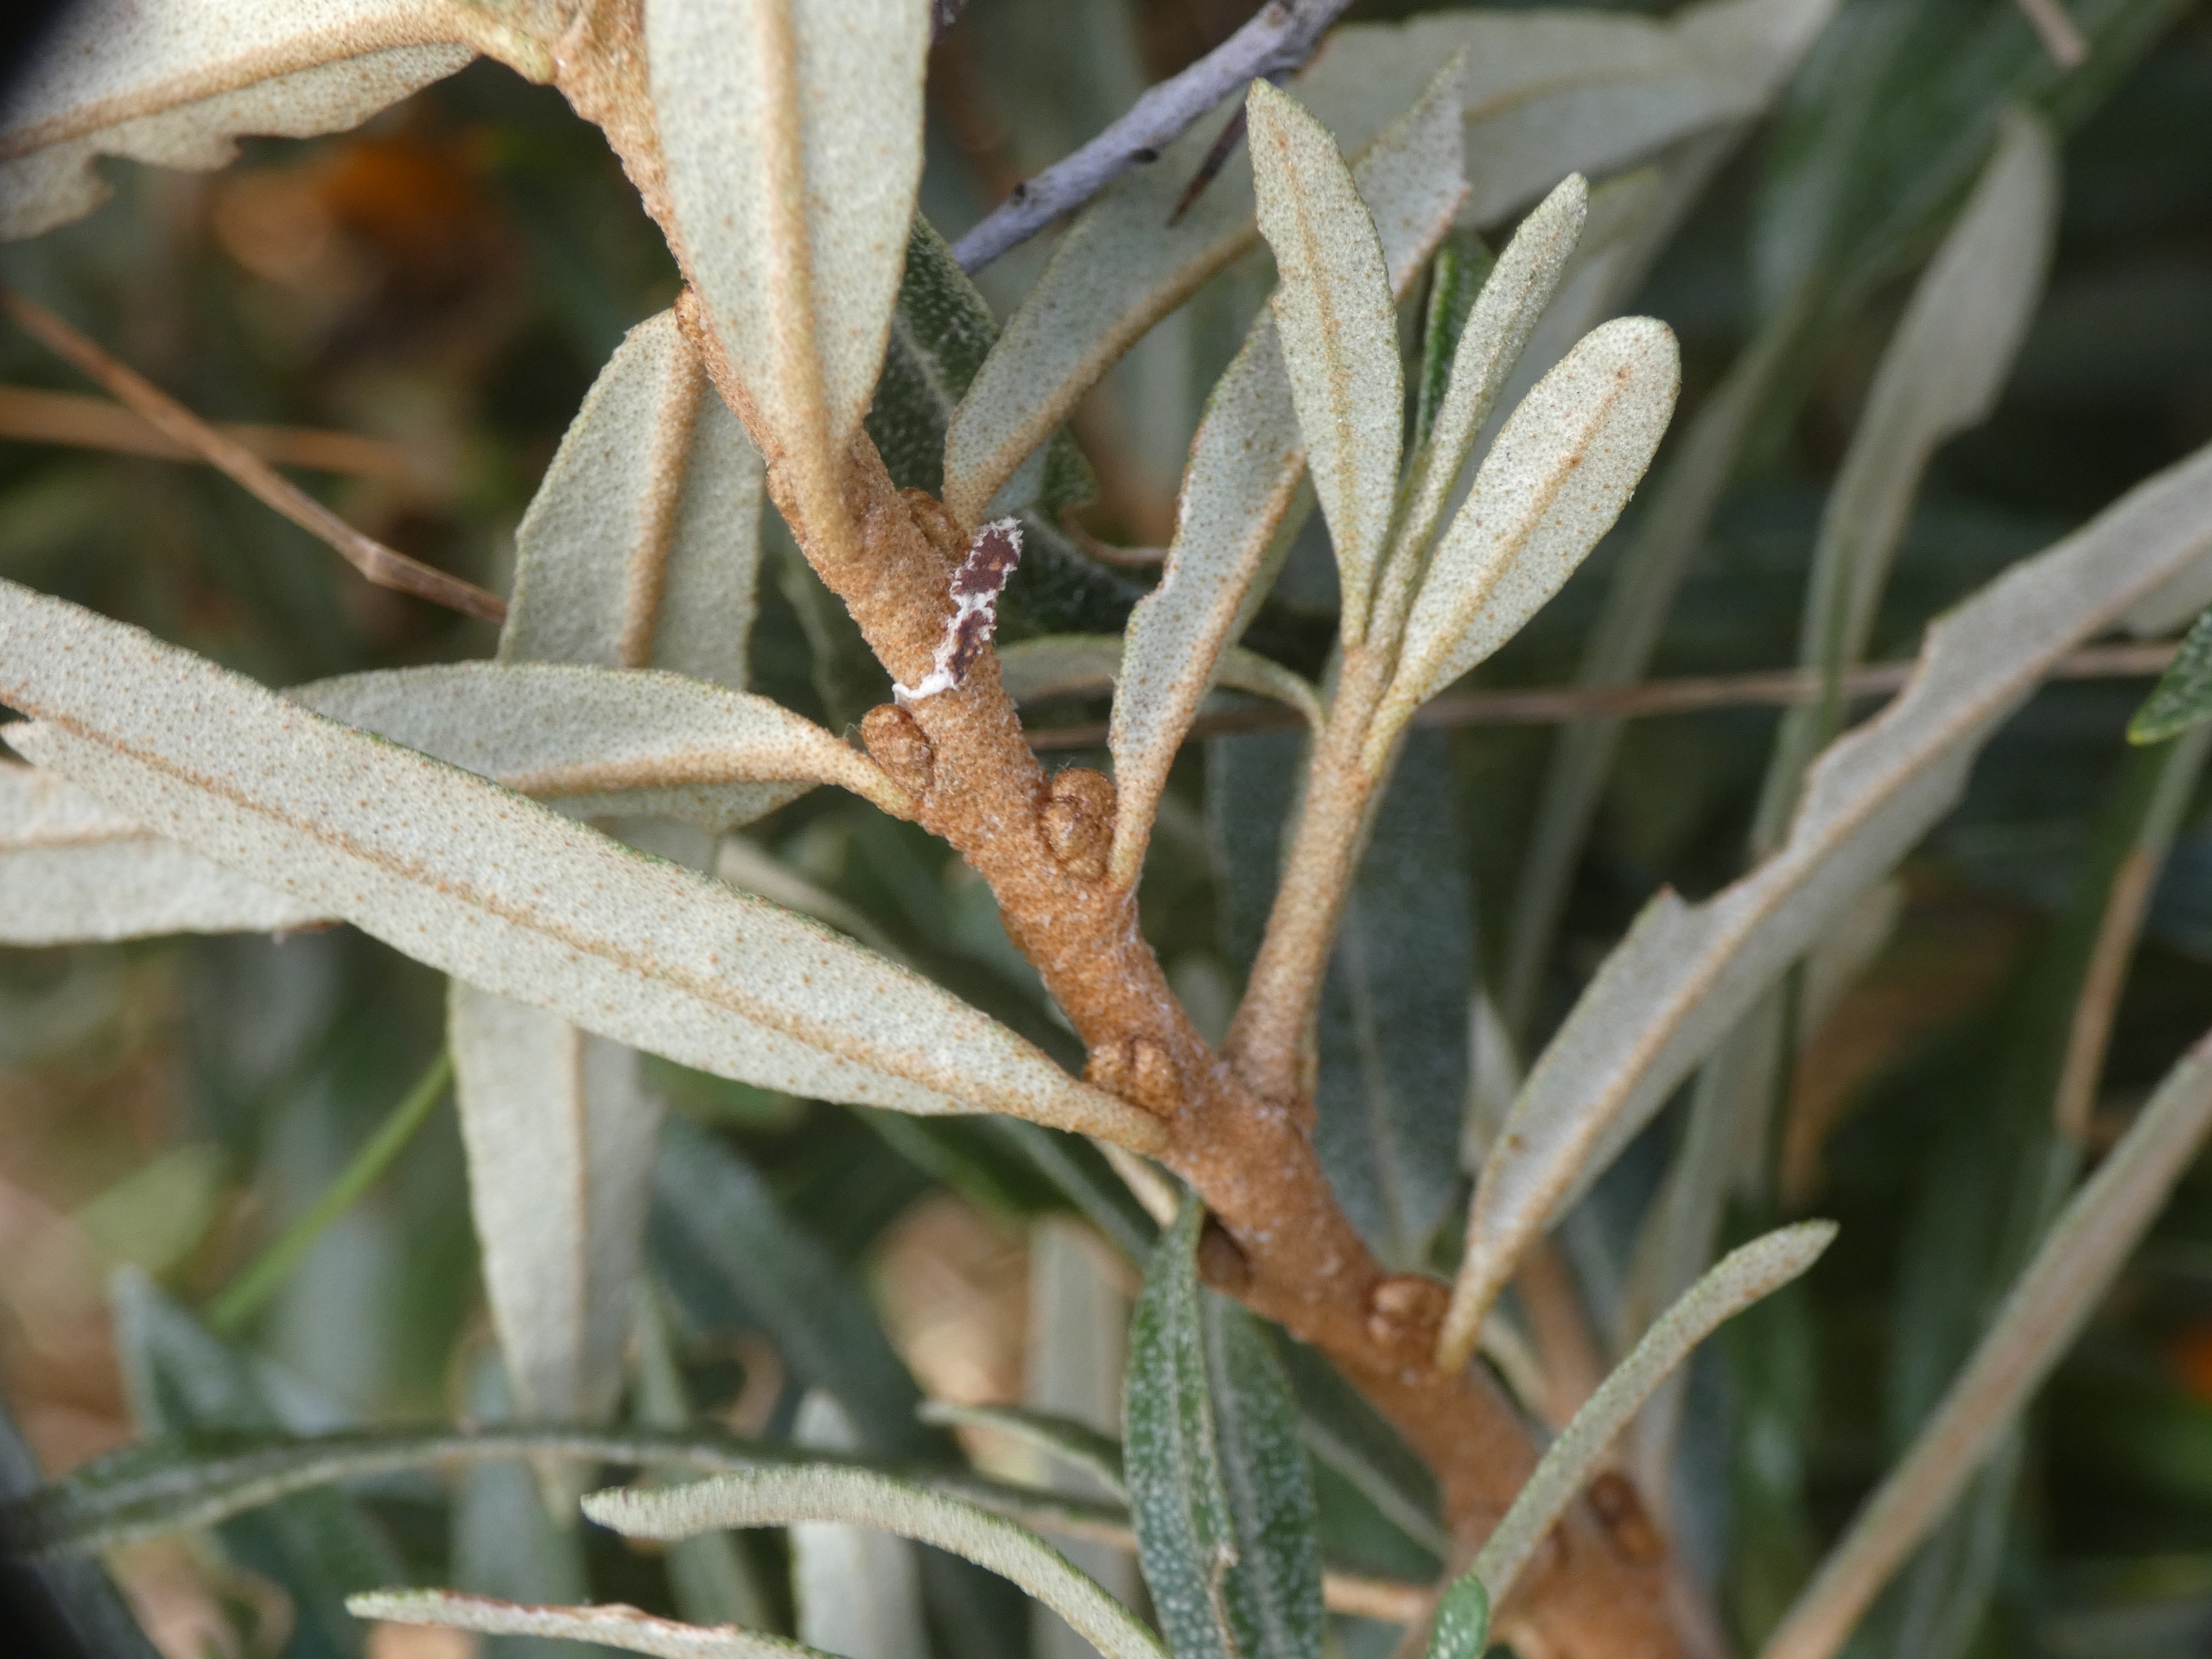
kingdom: Plantae
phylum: Tracheophyta
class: Magnoliopsida
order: Rosales
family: Elaeagnaceae
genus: Hippophae
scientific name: Hippophae rhamnoides
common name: Havtorn
